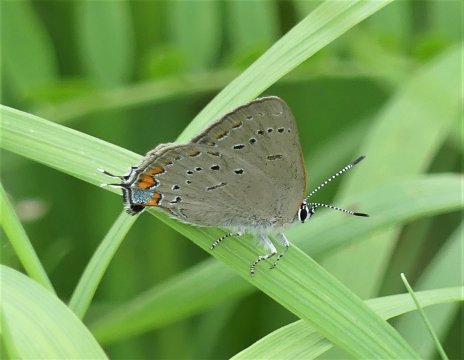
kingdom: Animalia
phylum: Arthropoda
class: Insecta
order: Lepidoptera
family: Lycaenidae
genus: Strymon
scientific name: Strymon acadica
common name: Acadian Hairstreak
